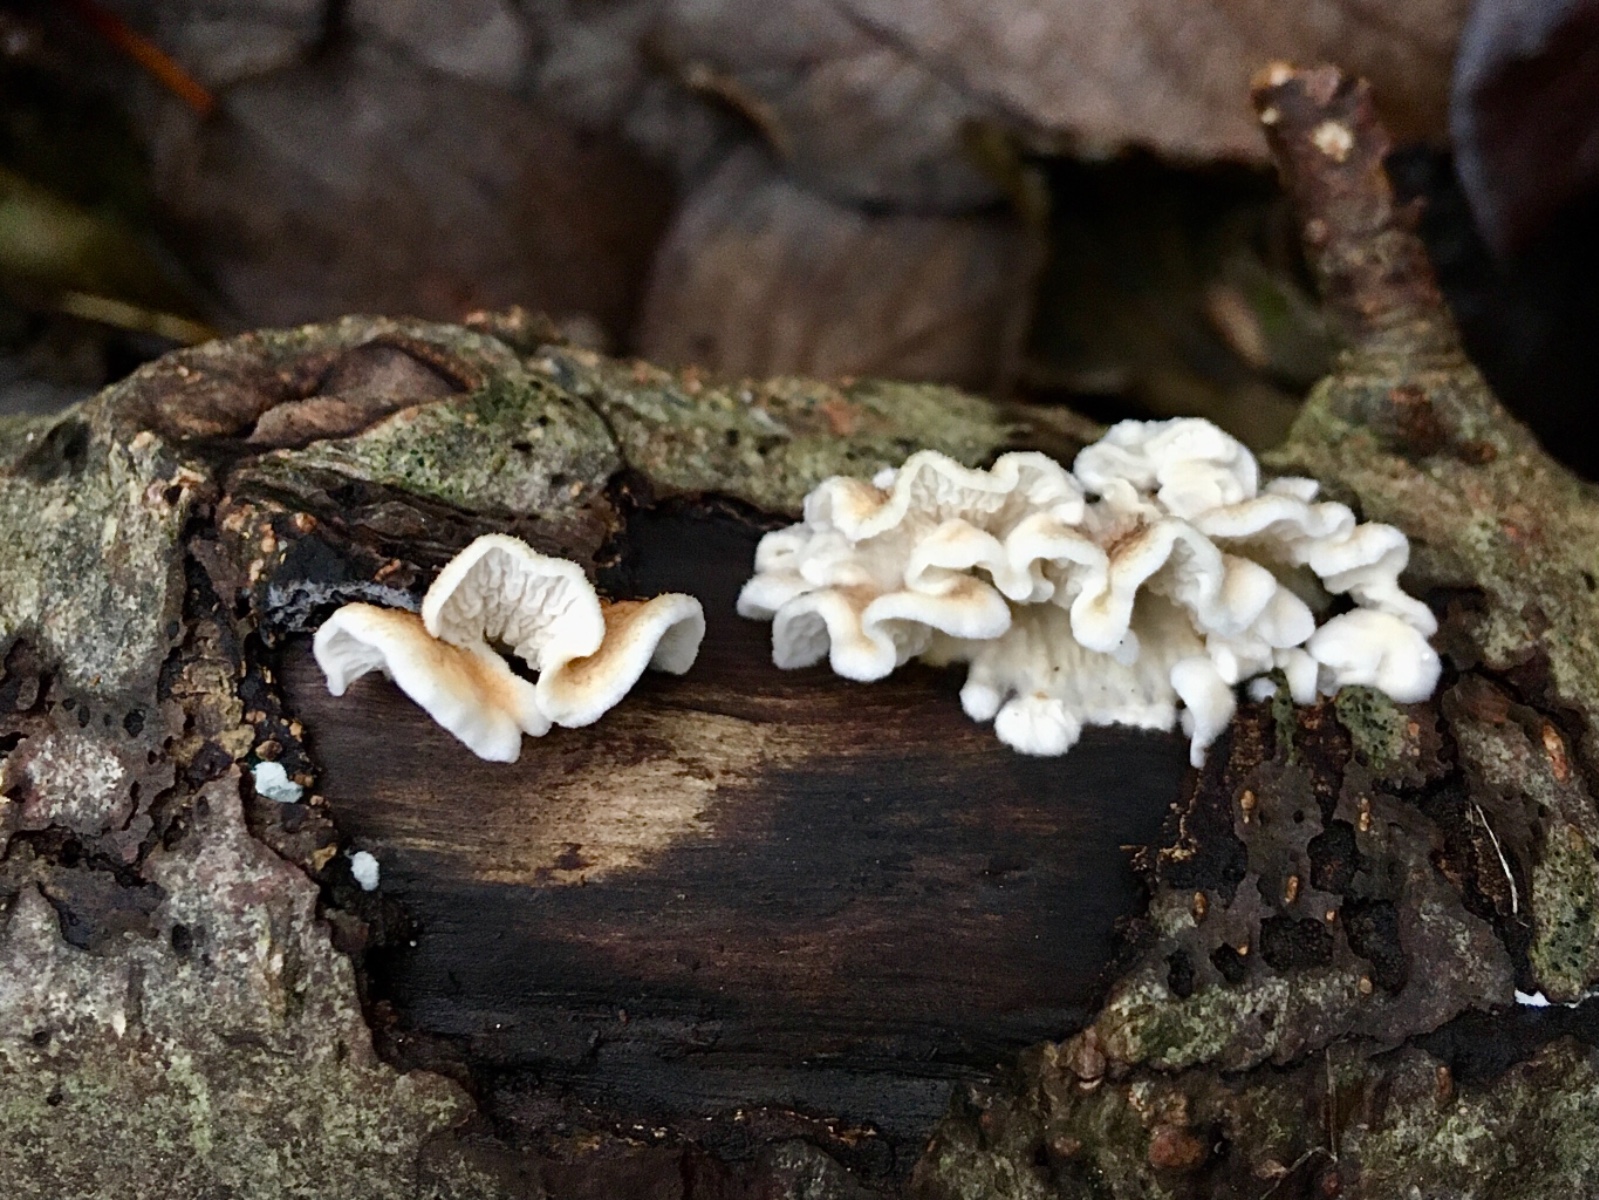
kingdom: Fungi
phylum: Basidiomycota
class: Agaricomycetes
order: Amylocorticiales
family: Amylocorticiaceae
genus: Plicaturopsis
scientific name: Plicaturopsis crispa
